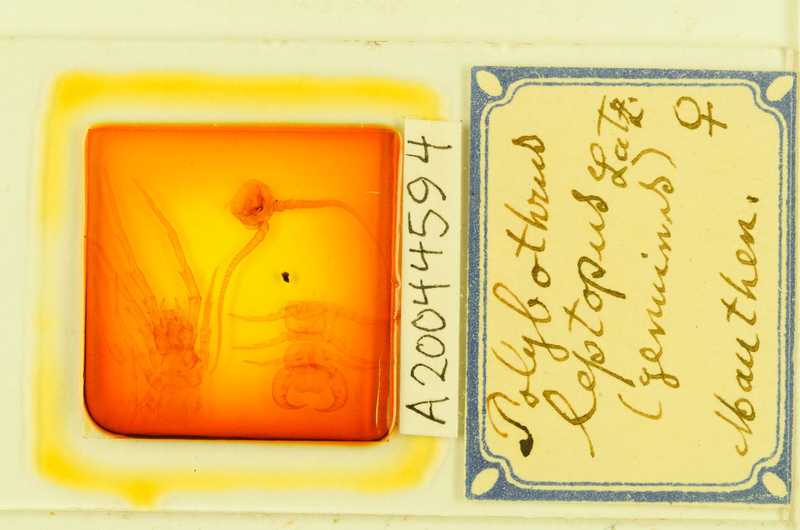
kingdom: Animalia
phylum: Arthropoda
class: Chilopoda
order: Lithobiomorpha
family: Lithobiidae
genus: Polybothrus
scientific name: Polybothrus leptopus
